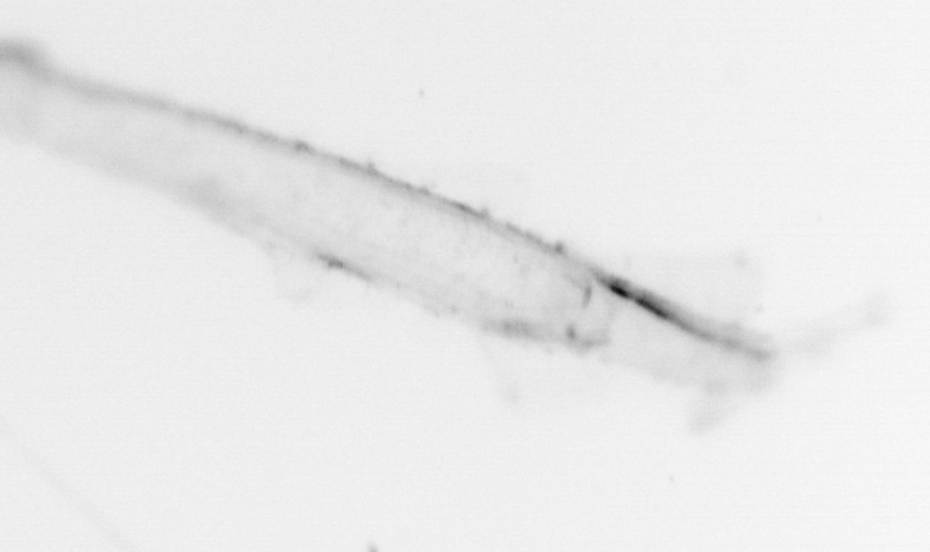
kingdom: Animalia
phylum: Chaetognatha
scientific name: Chaetognatha
